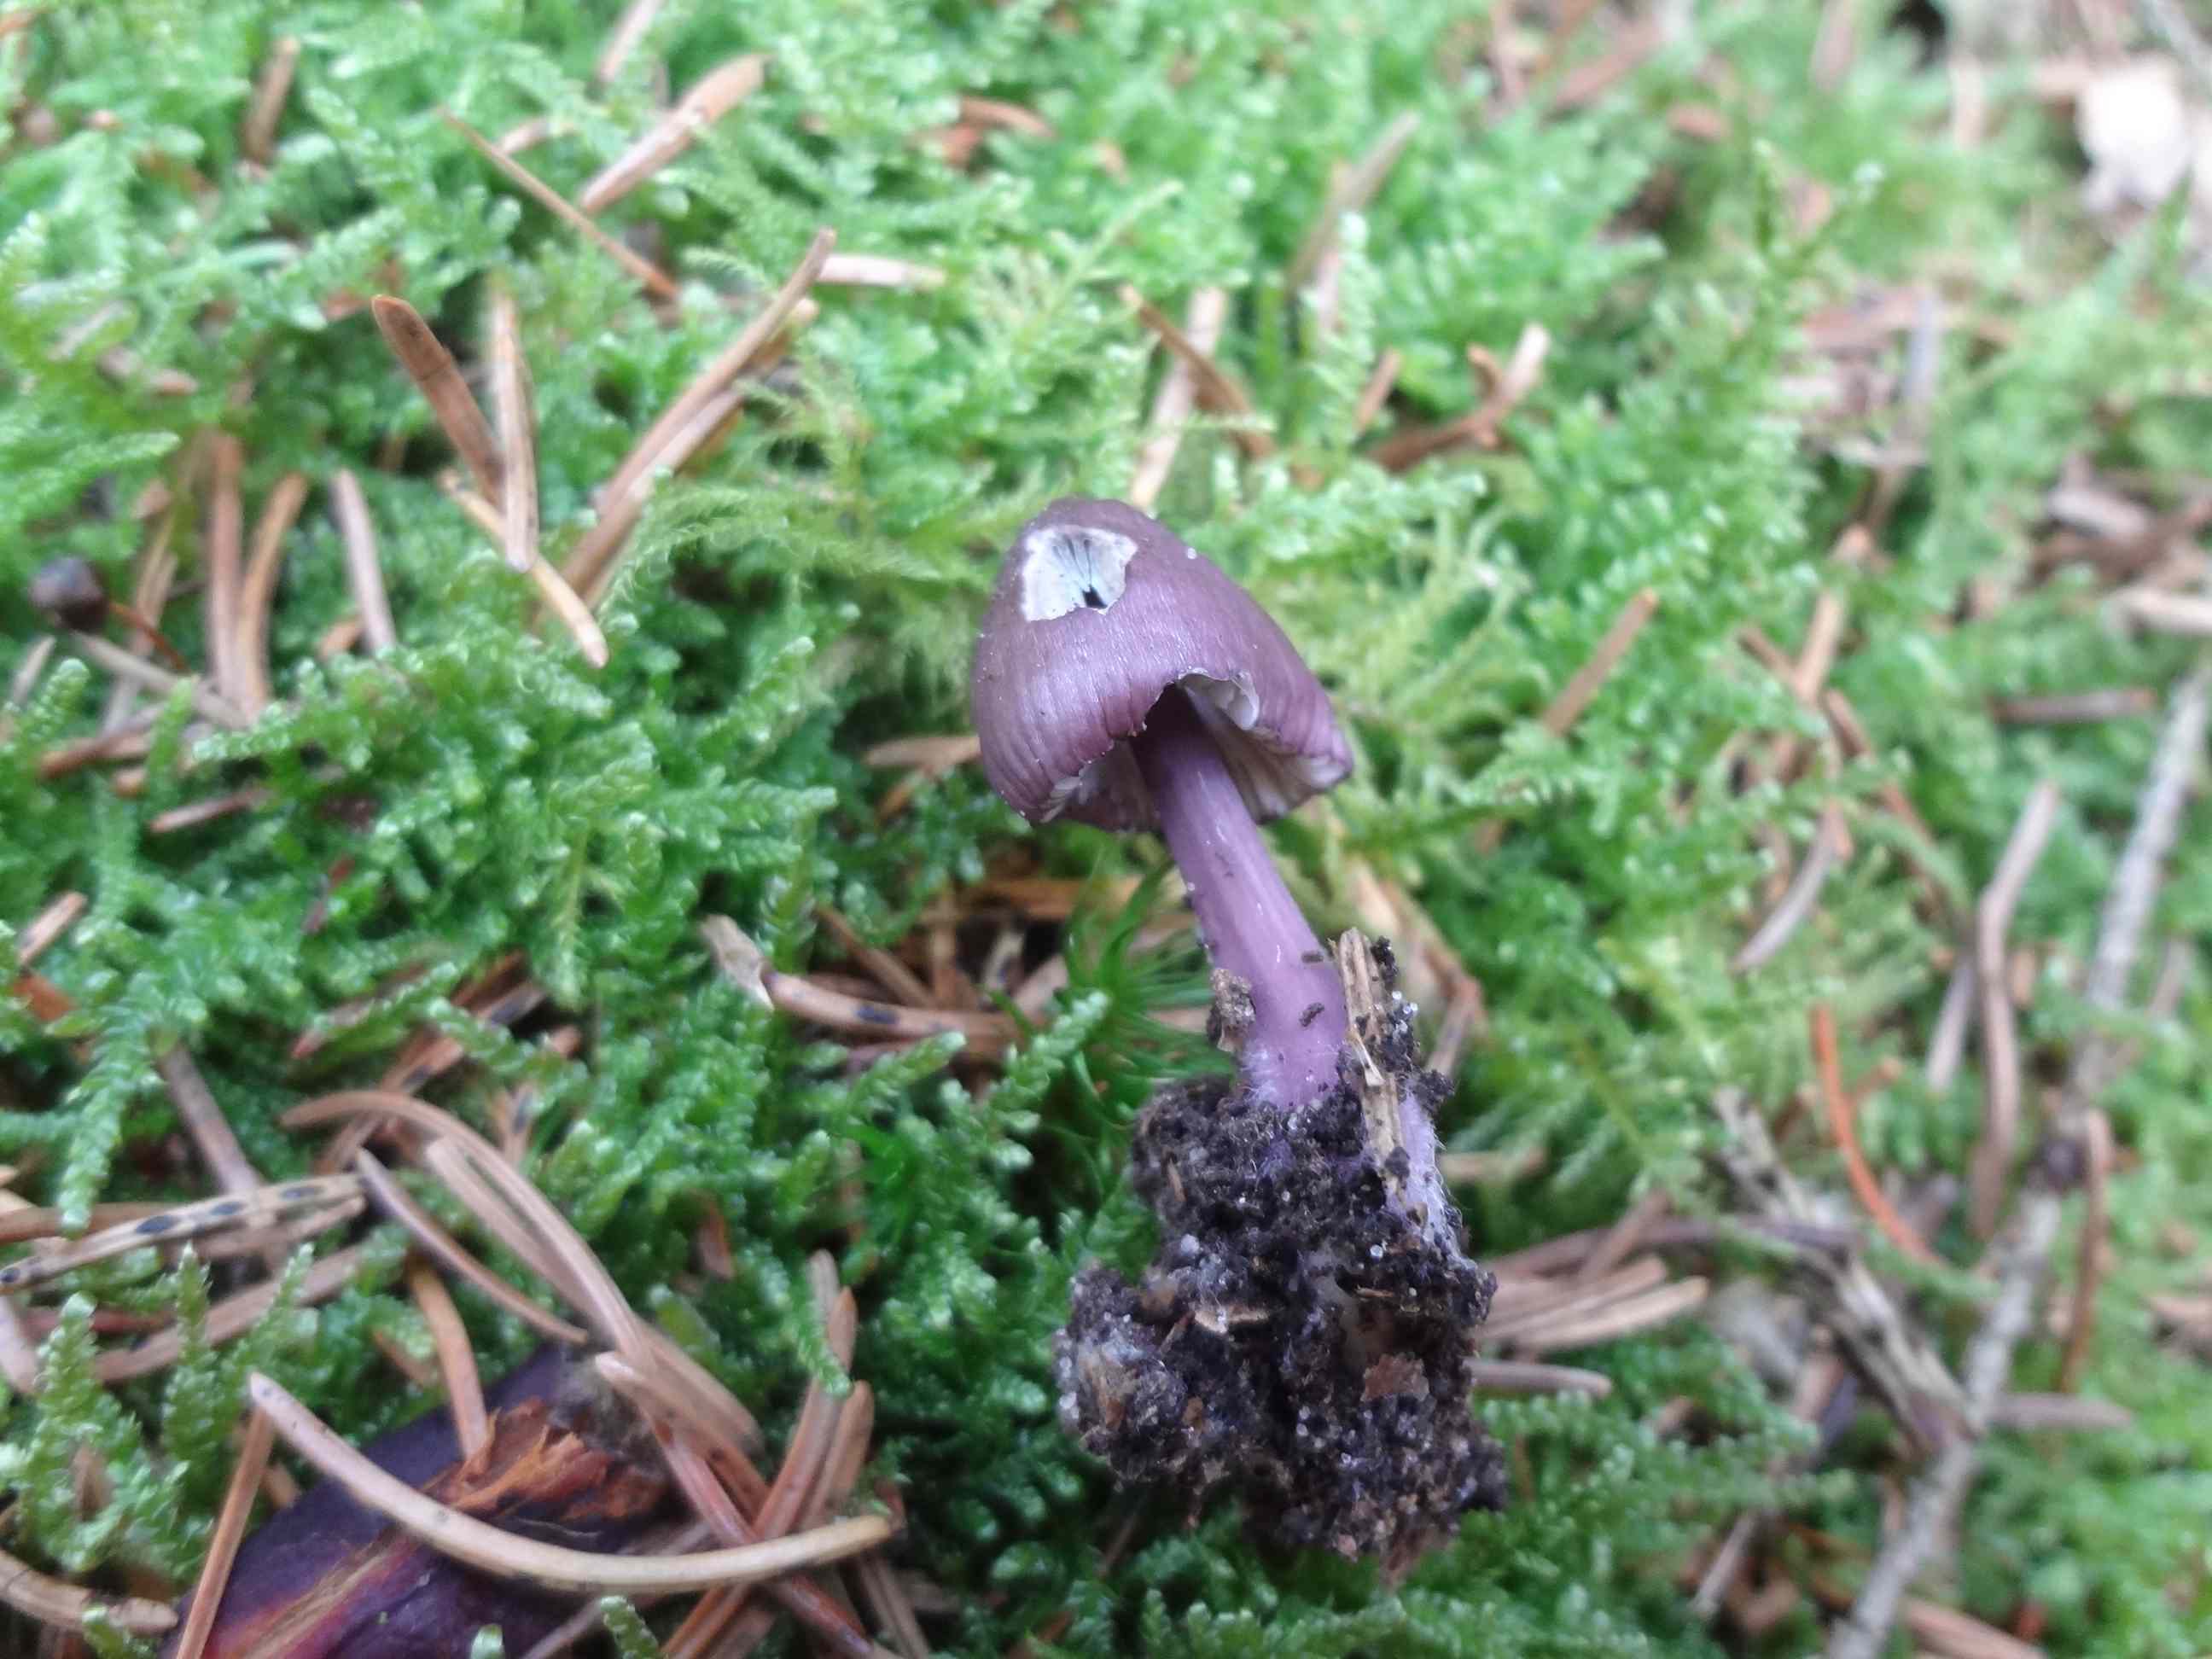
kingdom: Fungi
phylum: Basidiomycota
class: Agaricomycetes
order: Agaricales
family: Mycenaceae
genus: Mycena
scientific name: Mycena purpureofusca
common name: purpur-huesvamp
